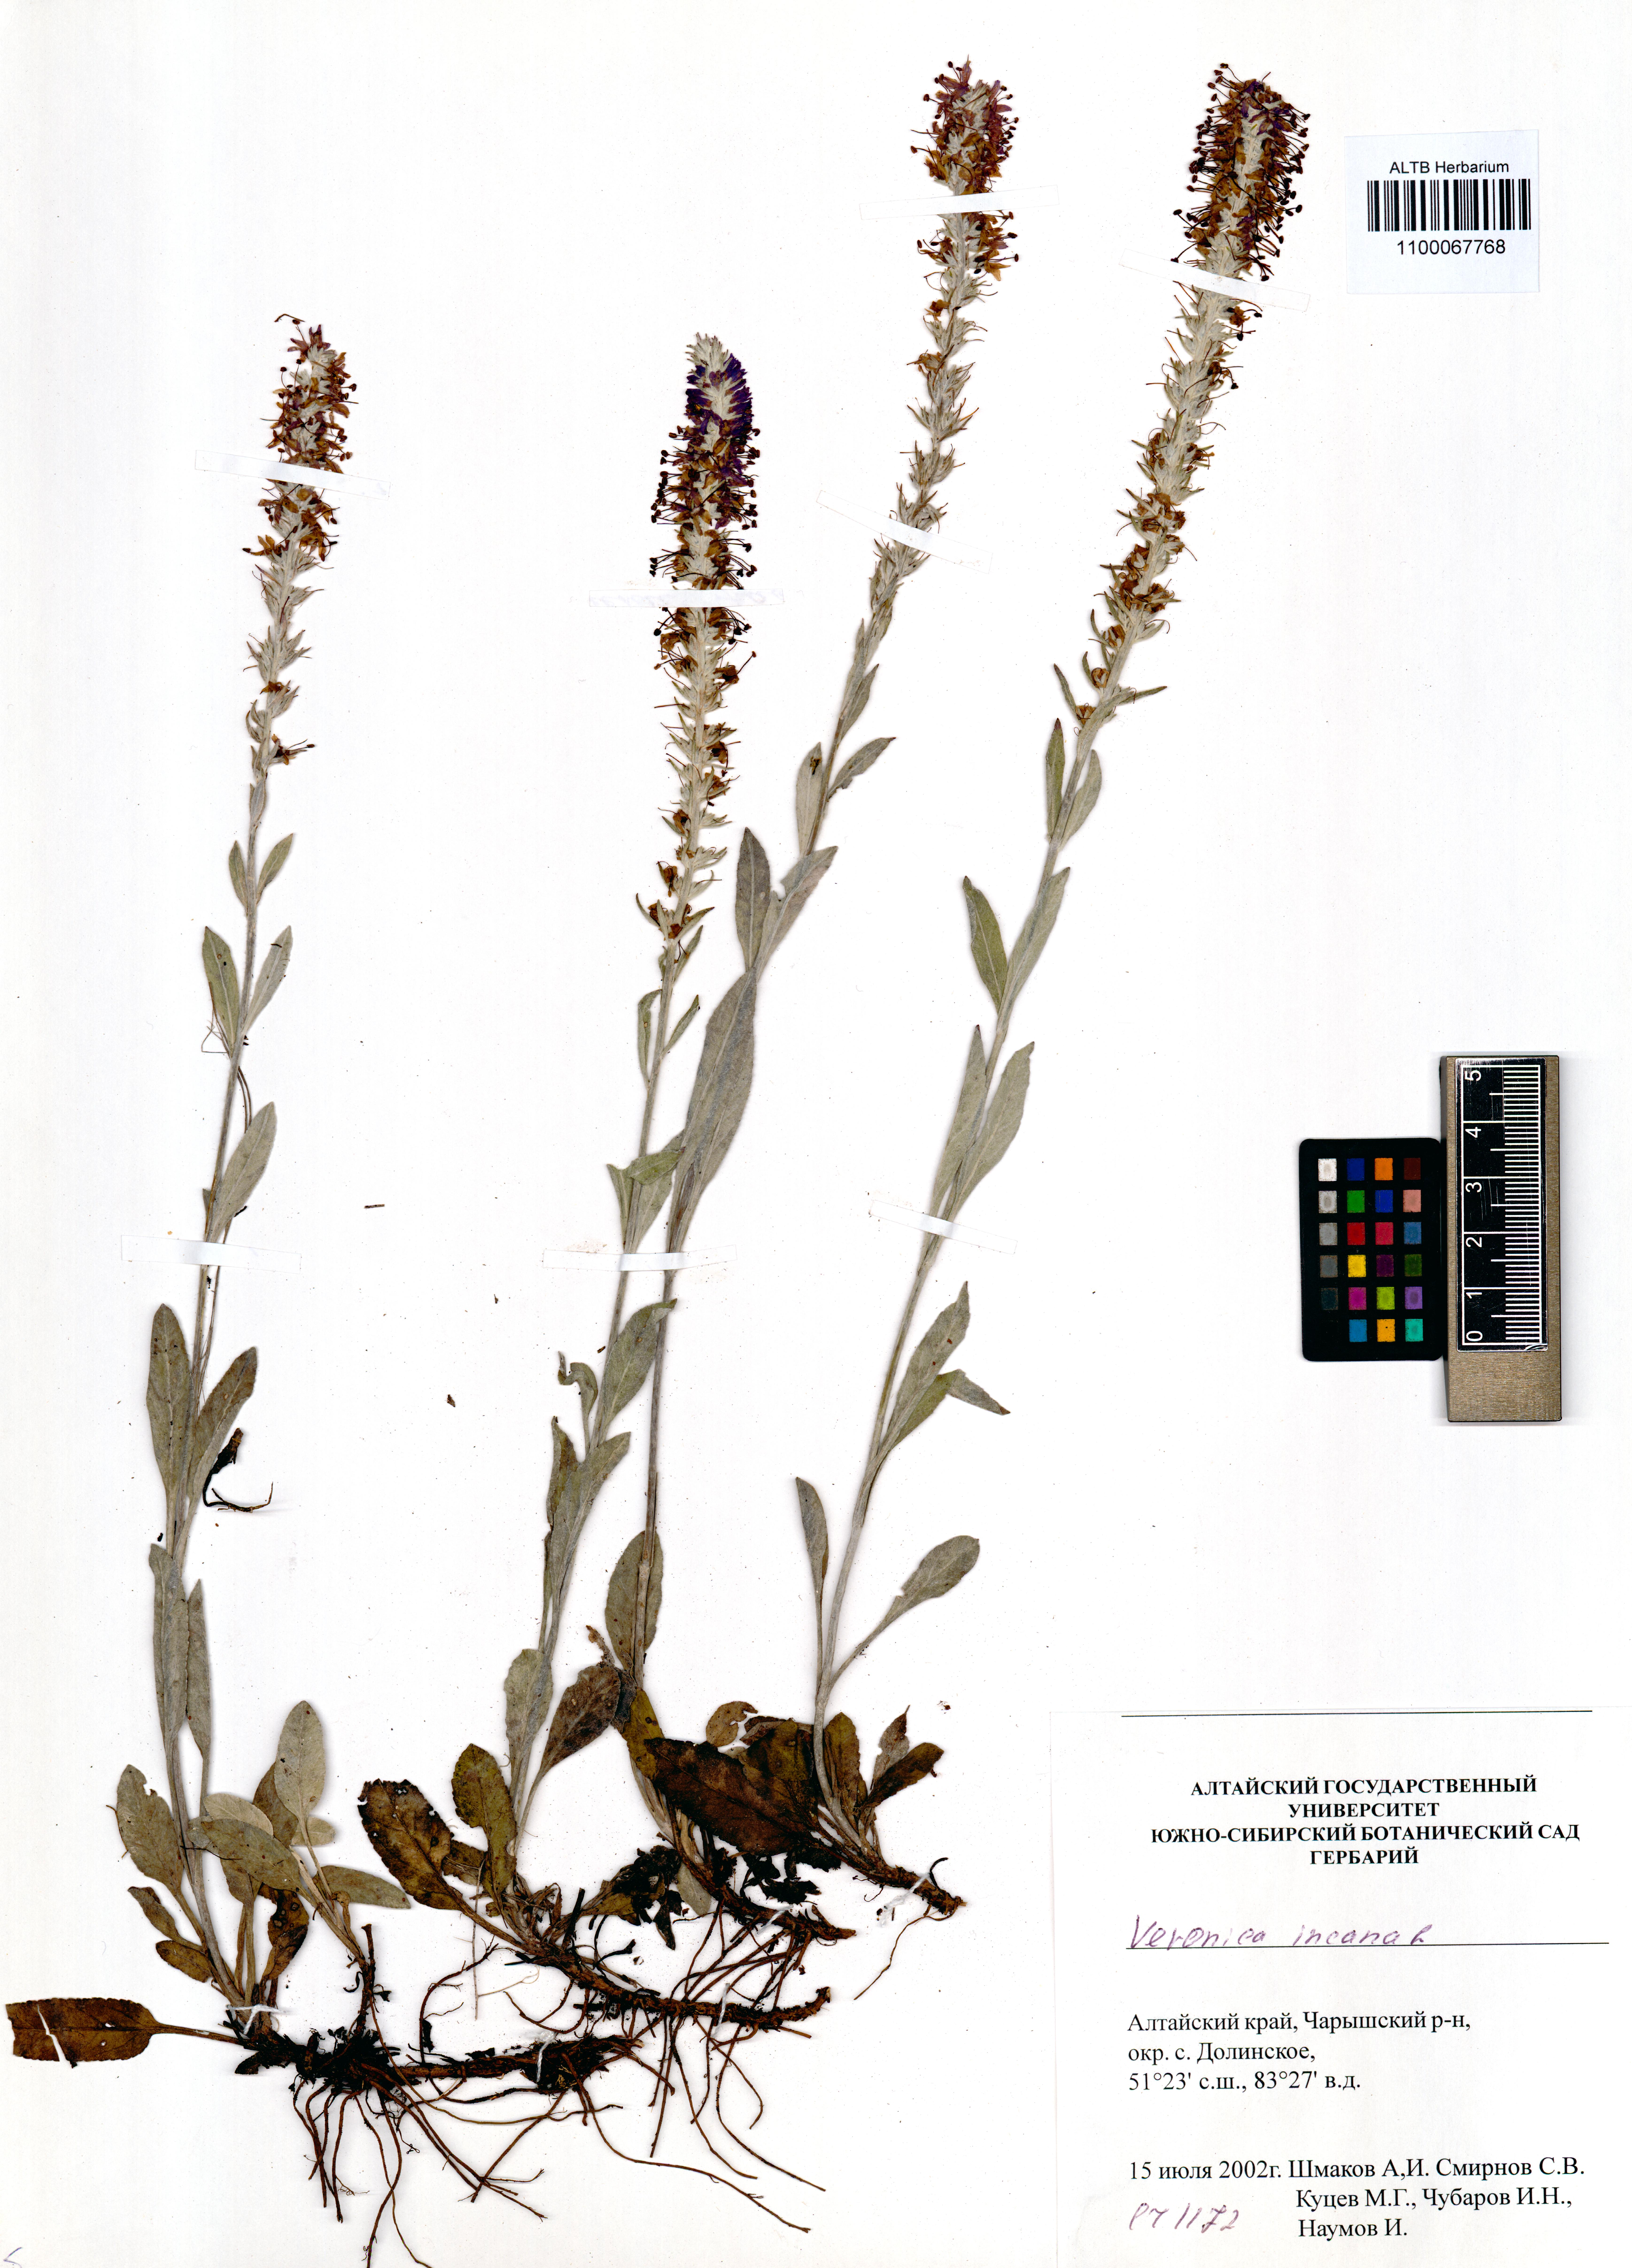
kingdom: Plantae
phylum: Tracheophyta
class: Magnoliopsida
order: Lamiales
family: Plantaginaceae
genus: Veronica
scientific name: Veronica incana
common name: Silver speedwell
